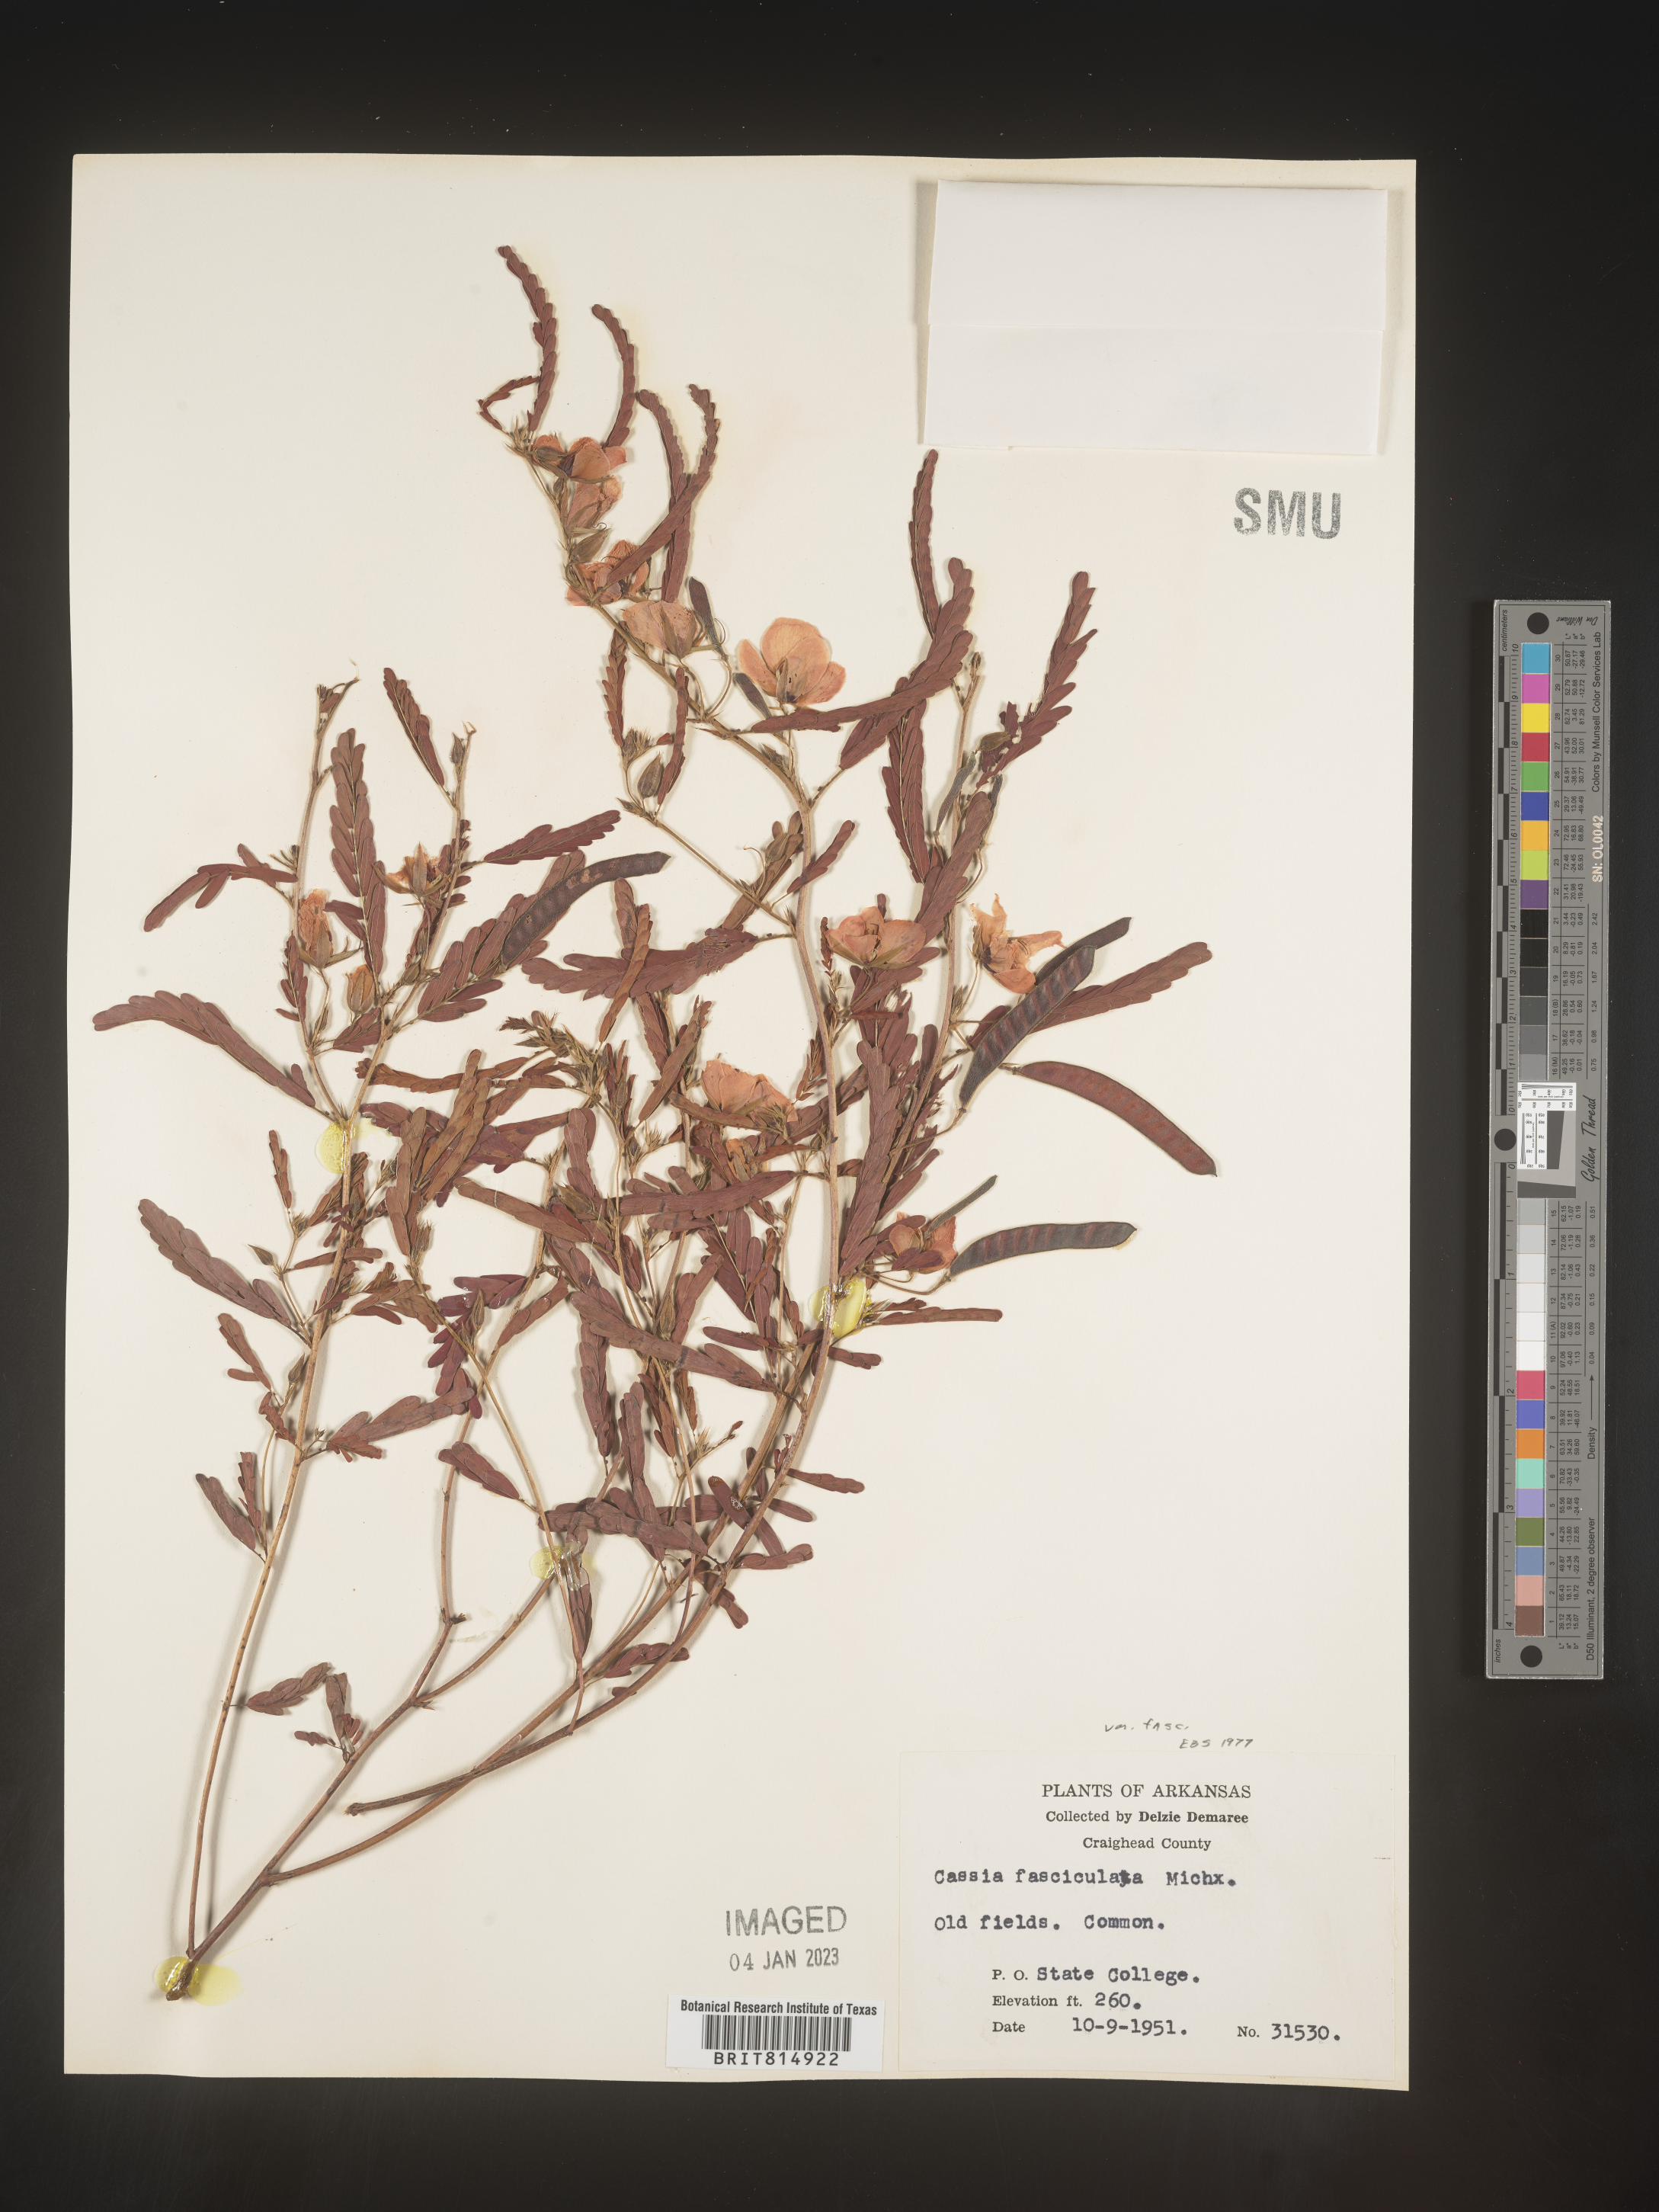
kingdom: Plantae
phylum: Tracheophyta
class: Magnoliopsida
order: Fabales
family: Fabaceae
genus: Chamaecrista
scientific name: Chamaecrista fasciculata
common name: Golden cassia
